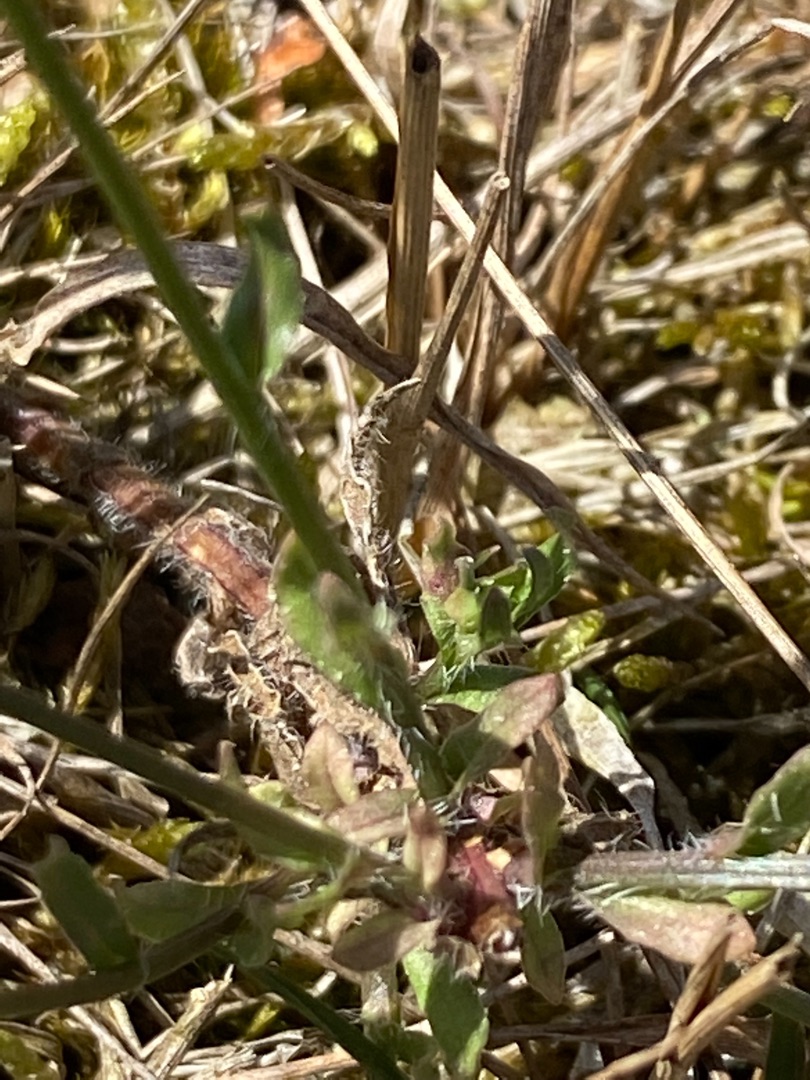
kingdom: Plantae
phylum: Tracheophyta
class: Magnoliopsida
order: Asterales
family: Campanulaceae
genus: Jasione
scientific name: Jasione montana
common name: Blåmunke
